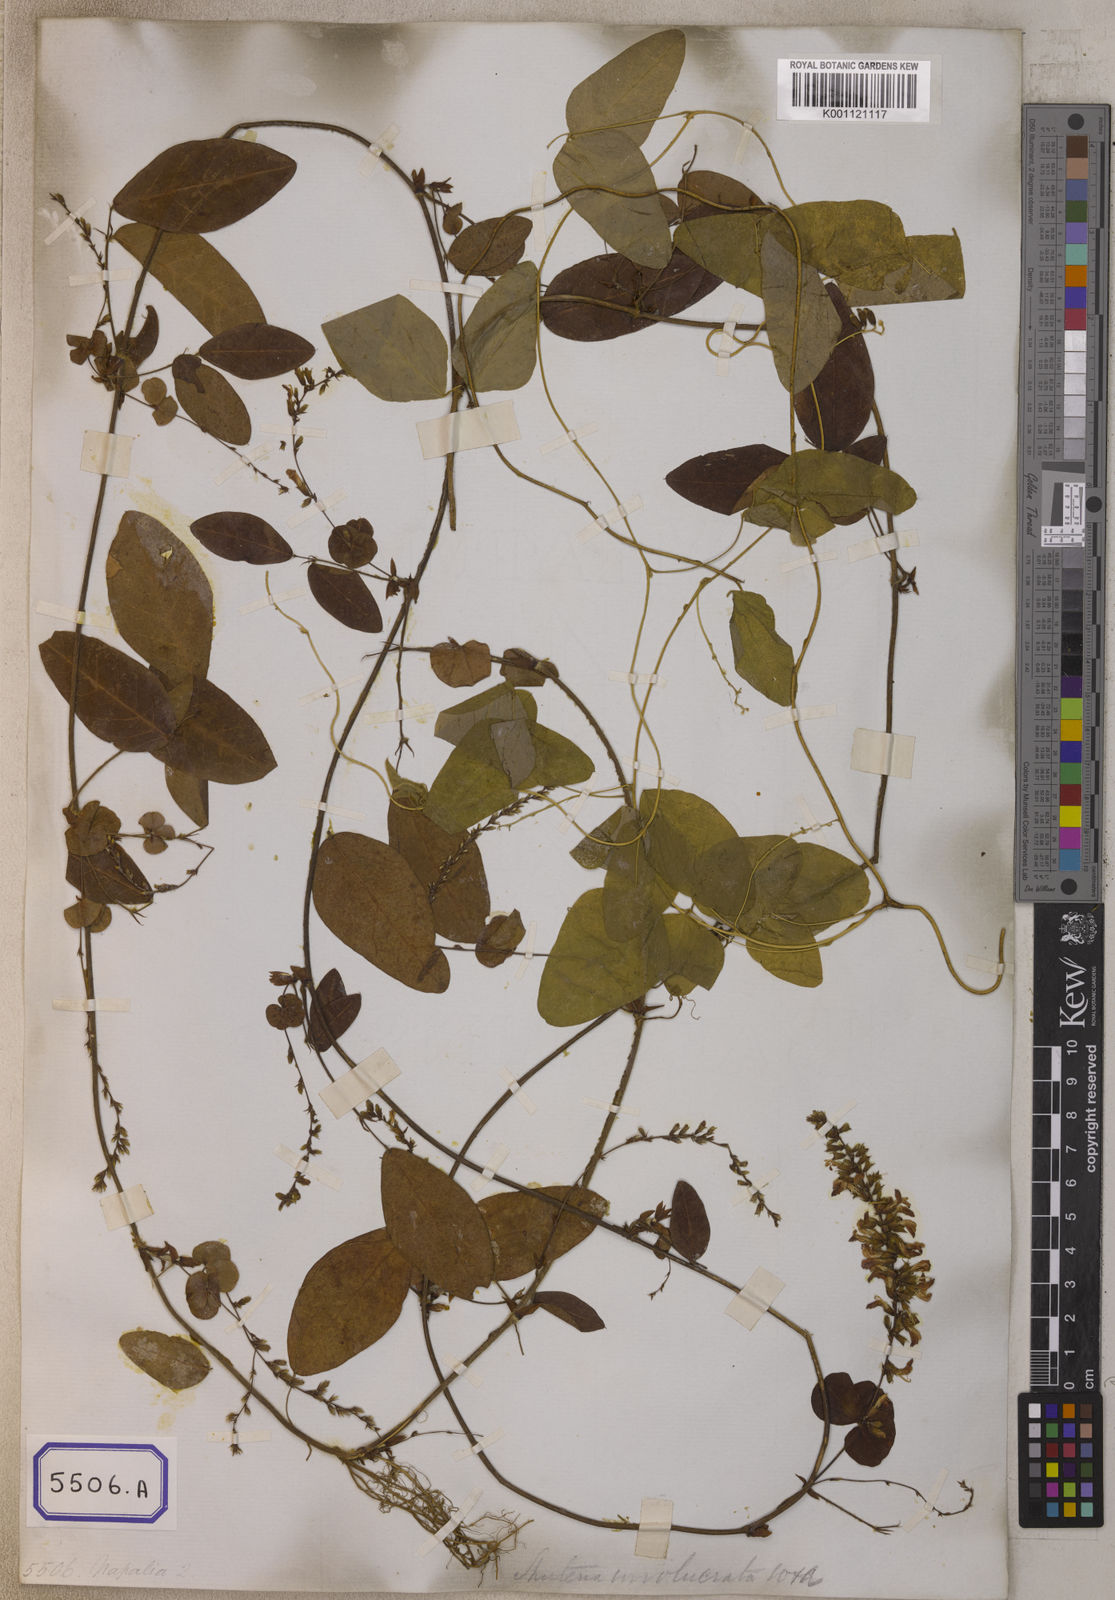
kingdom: Plantae
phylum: Tracheophyta
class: Magnoliopsida
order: Fabales
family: Fabaceae
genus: Shuteria
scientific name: Shuteria involucrata
